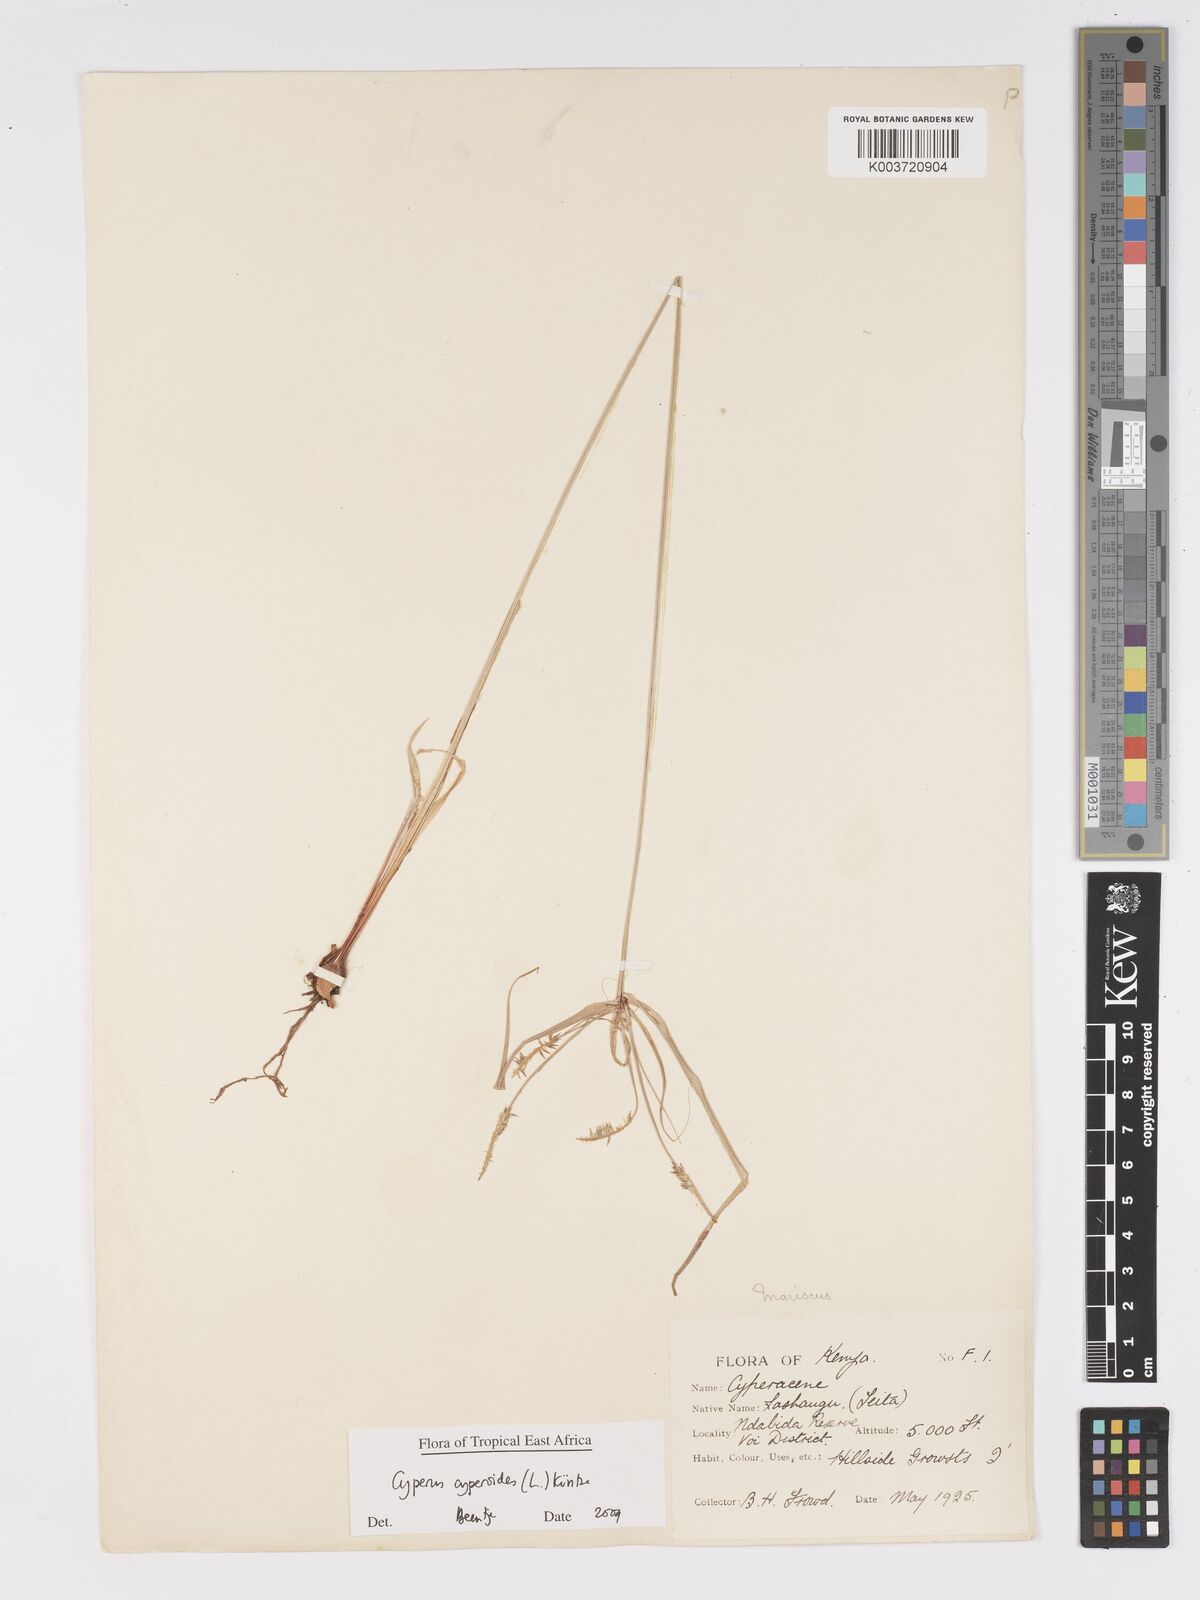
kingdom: Plantae
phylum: Tracheophyta
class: Liliopsida
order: Poales
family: Cyperaceae
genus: Cyperus
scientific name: Cyperus cyperoides
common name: Pacific island flat sedge
